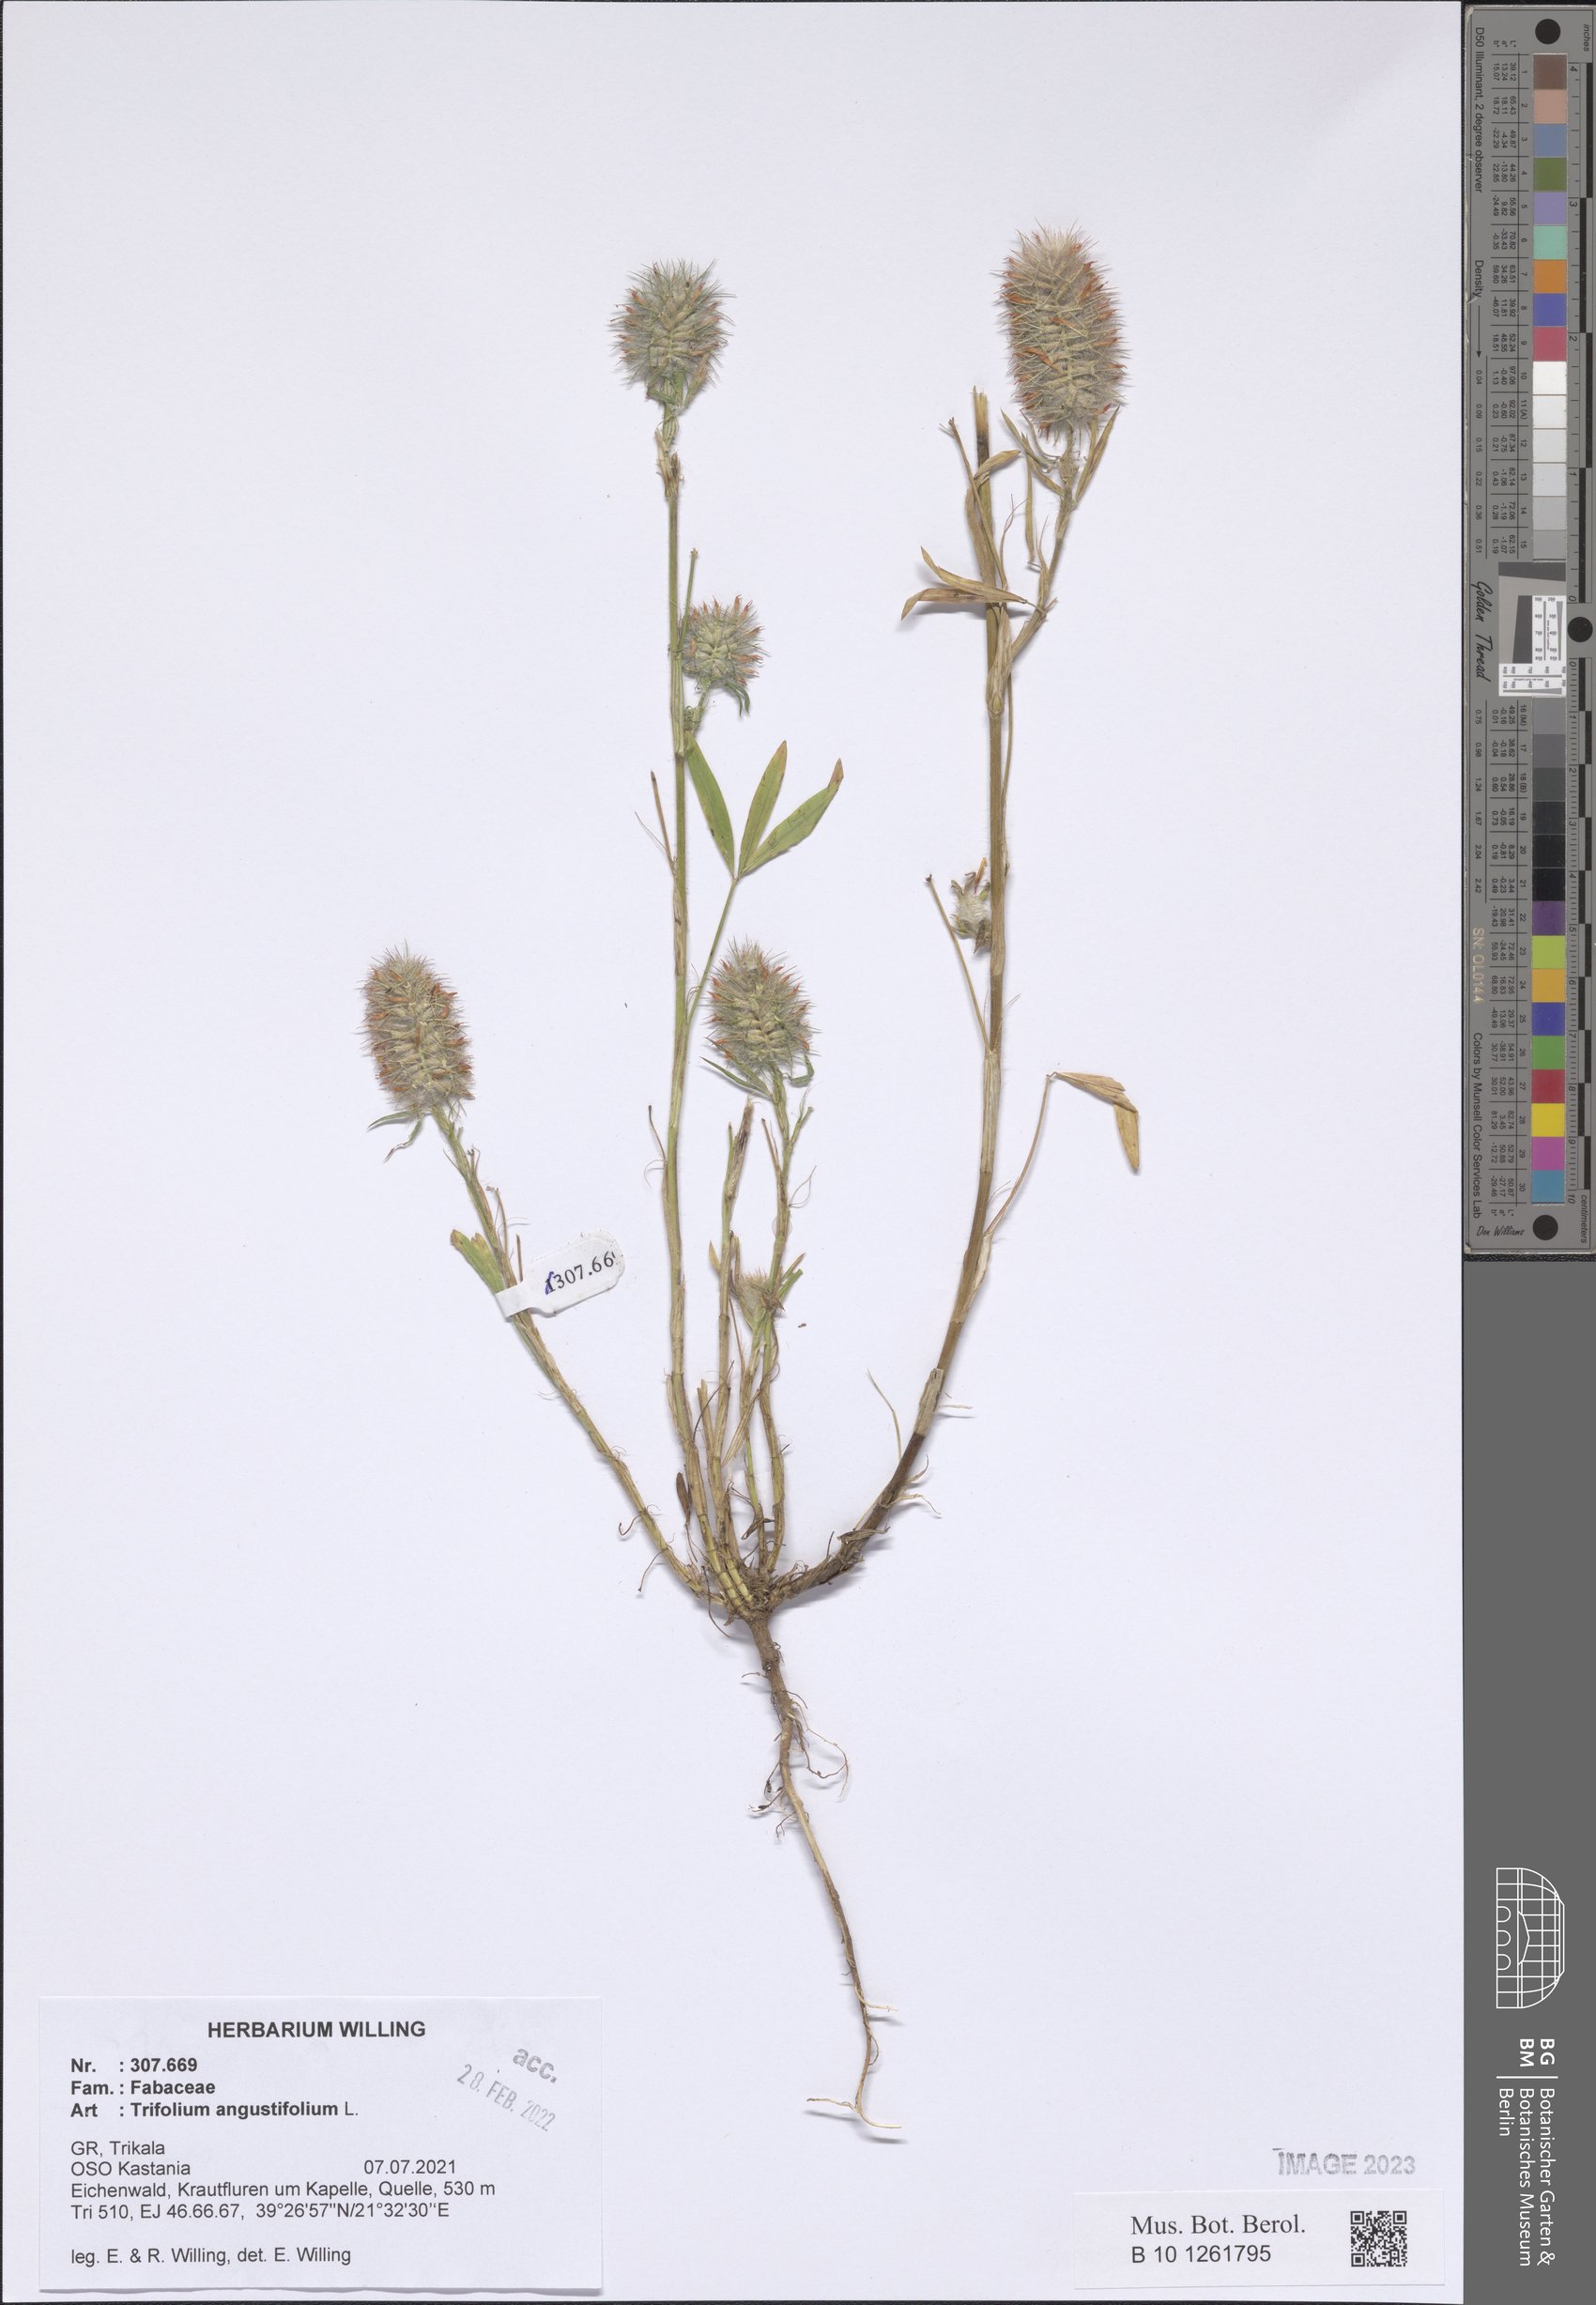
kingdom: Plantae
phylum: Tracheophyta
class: Magnoliopsida
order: Fabales
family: Fabaceae
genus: Trifolium
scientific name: Trifolium angustifolium
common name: Narrow clover
